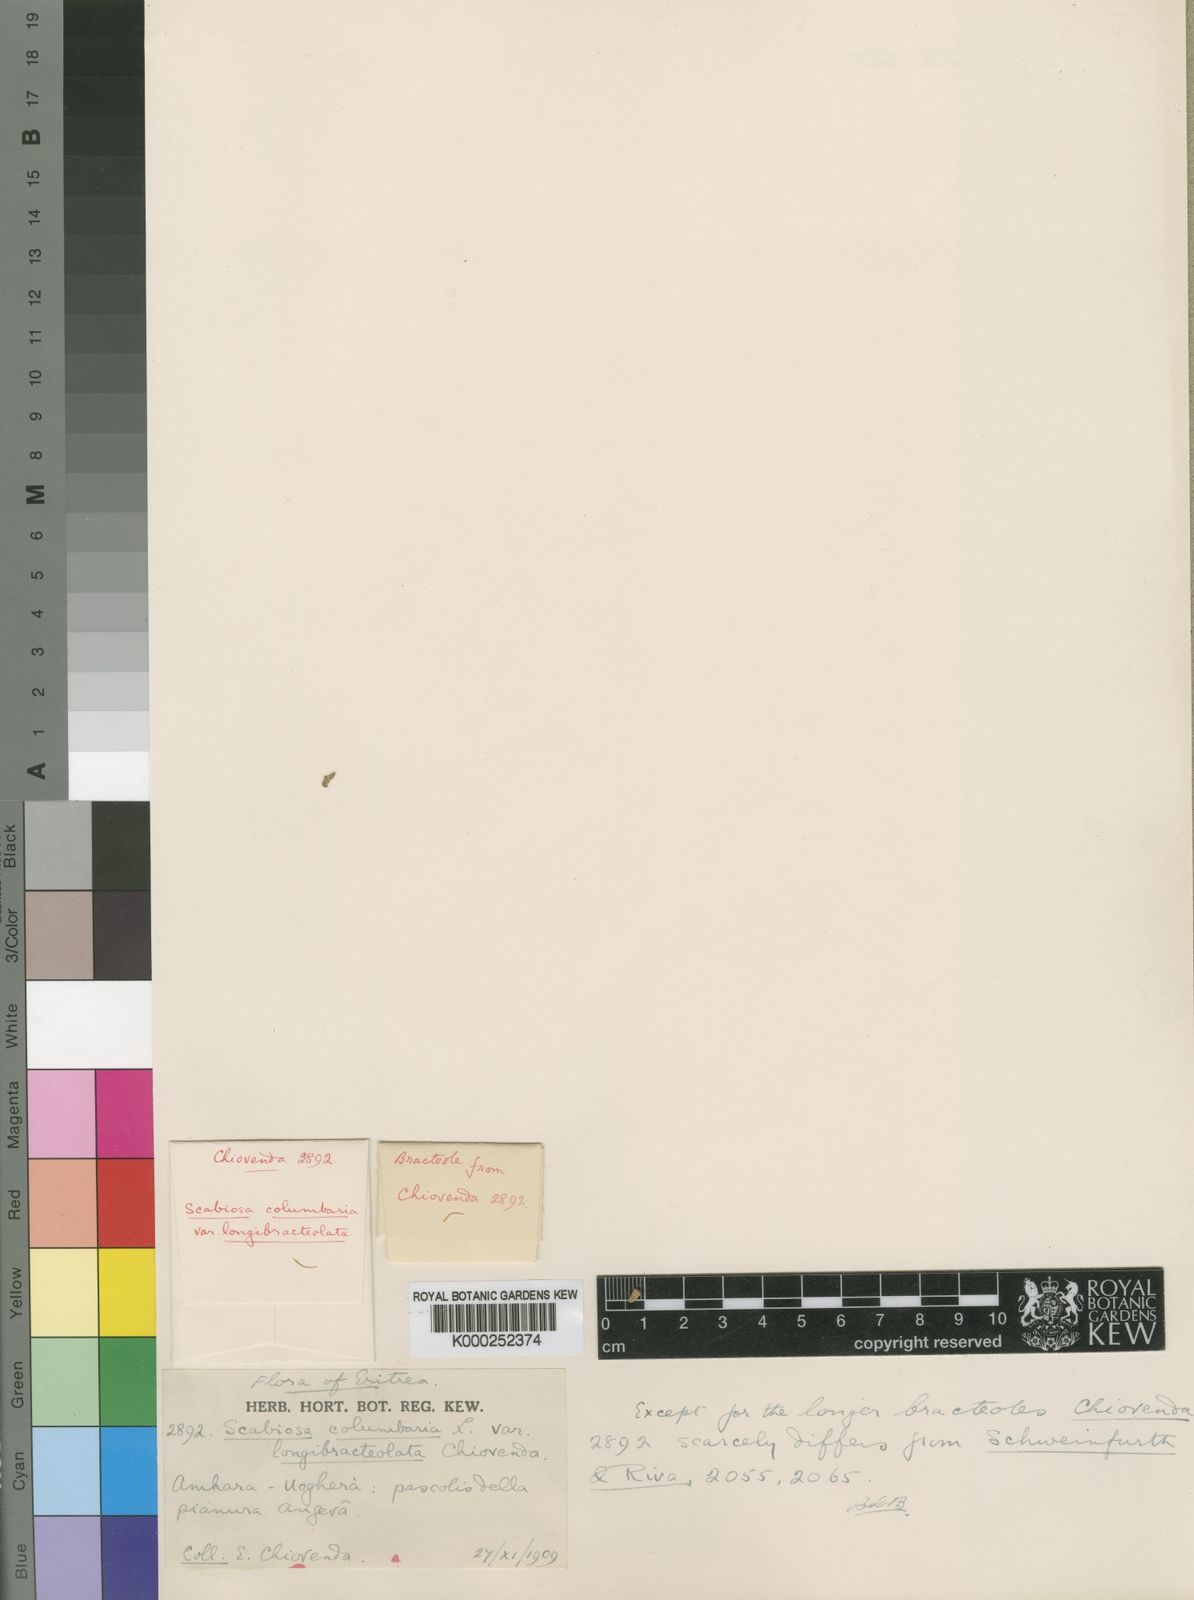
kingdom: Plantae
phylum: Tracheophyta
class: Magnoliopsida
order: Dipsacales
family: Caprifoliaceae
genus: Scabiosa
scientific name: Scabiosa columbaria
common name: Small scabious
